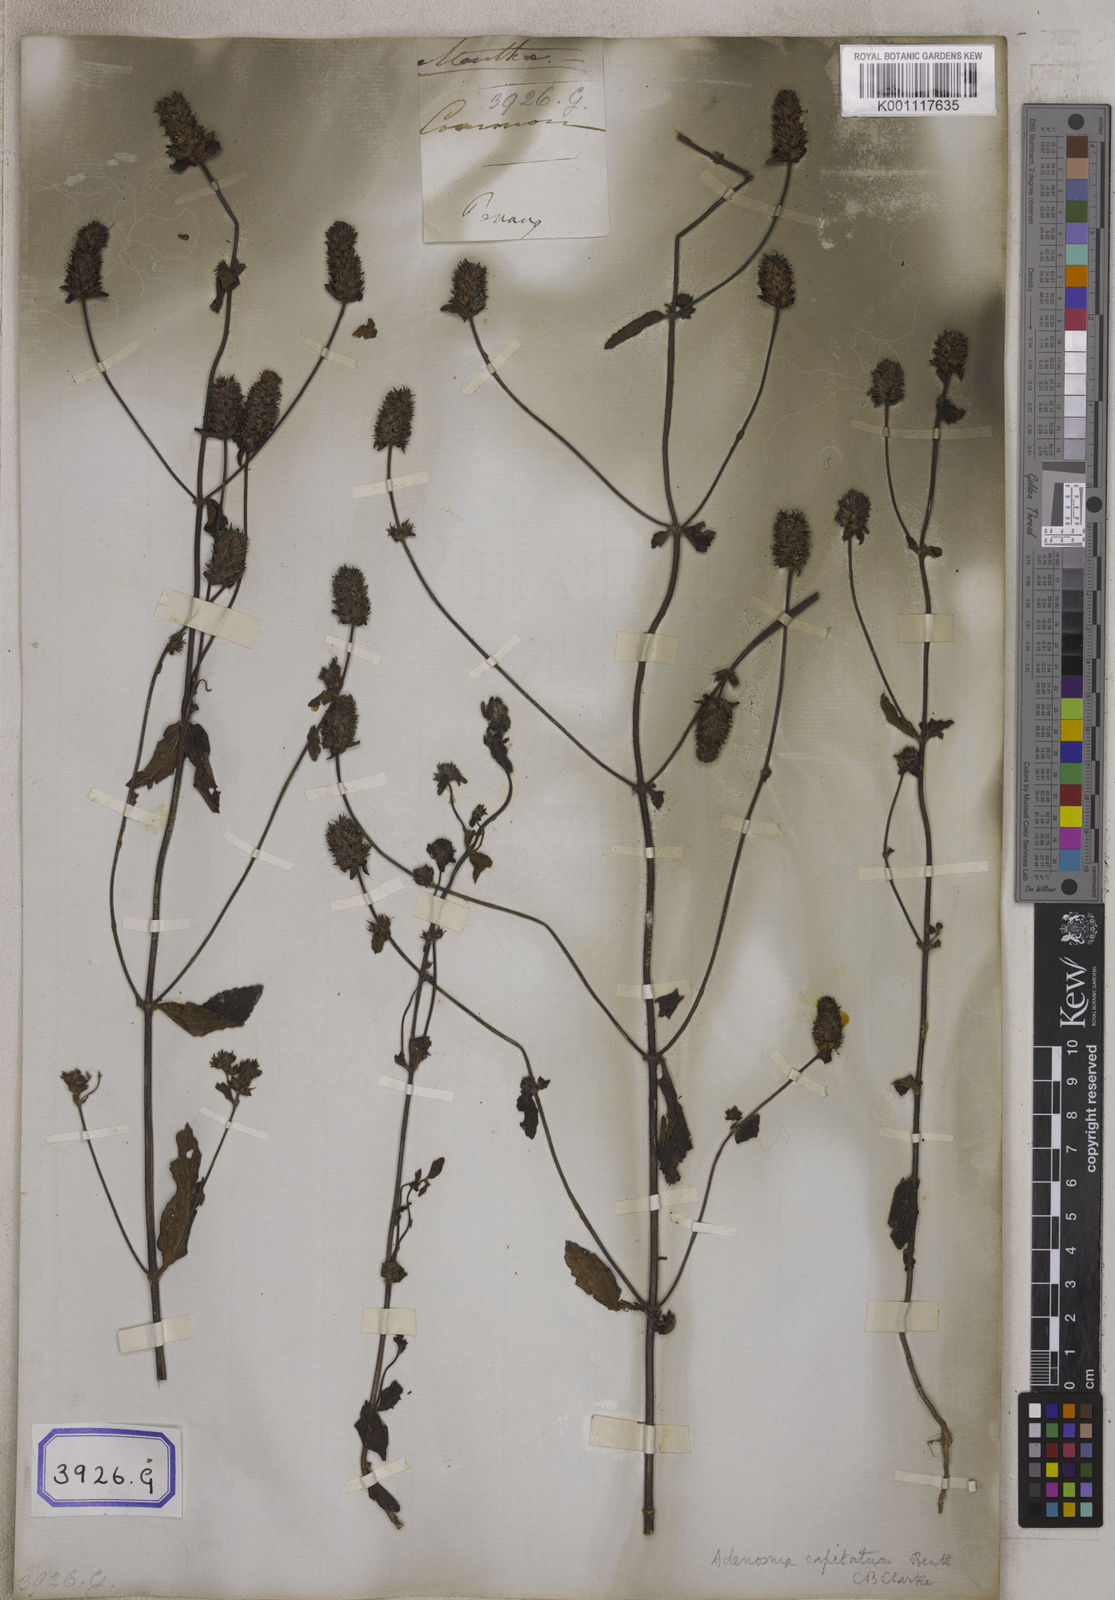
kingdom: Plantae
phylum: Tracheophyta
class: Magnoliopsida
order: Lamiales
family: Plantaginaceae
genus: Stemodia
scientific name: Stemodia
